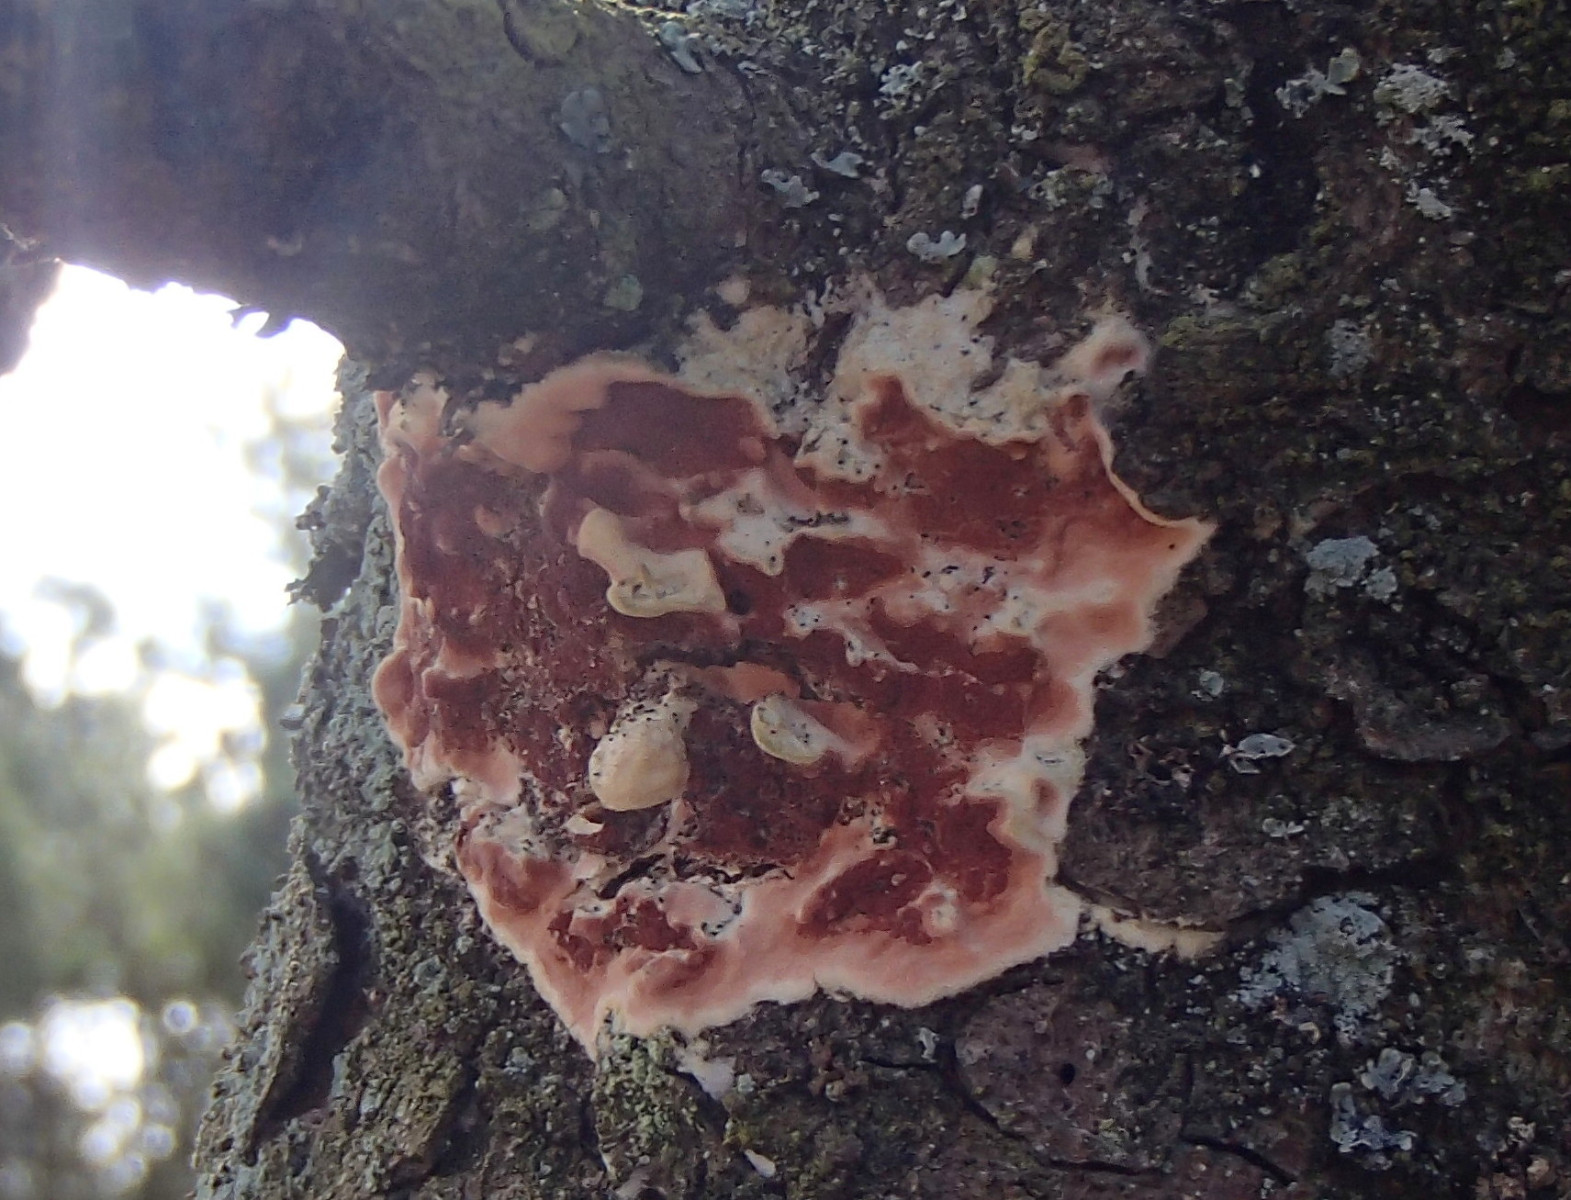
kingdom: Fungi
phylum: Basidiomycota
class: Agaricomycetes
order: Polyporales
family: Irpicaceae
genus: Meruliopsis
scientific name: Meruliopsis taxicola
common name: purpurbrun foldporesvamp
